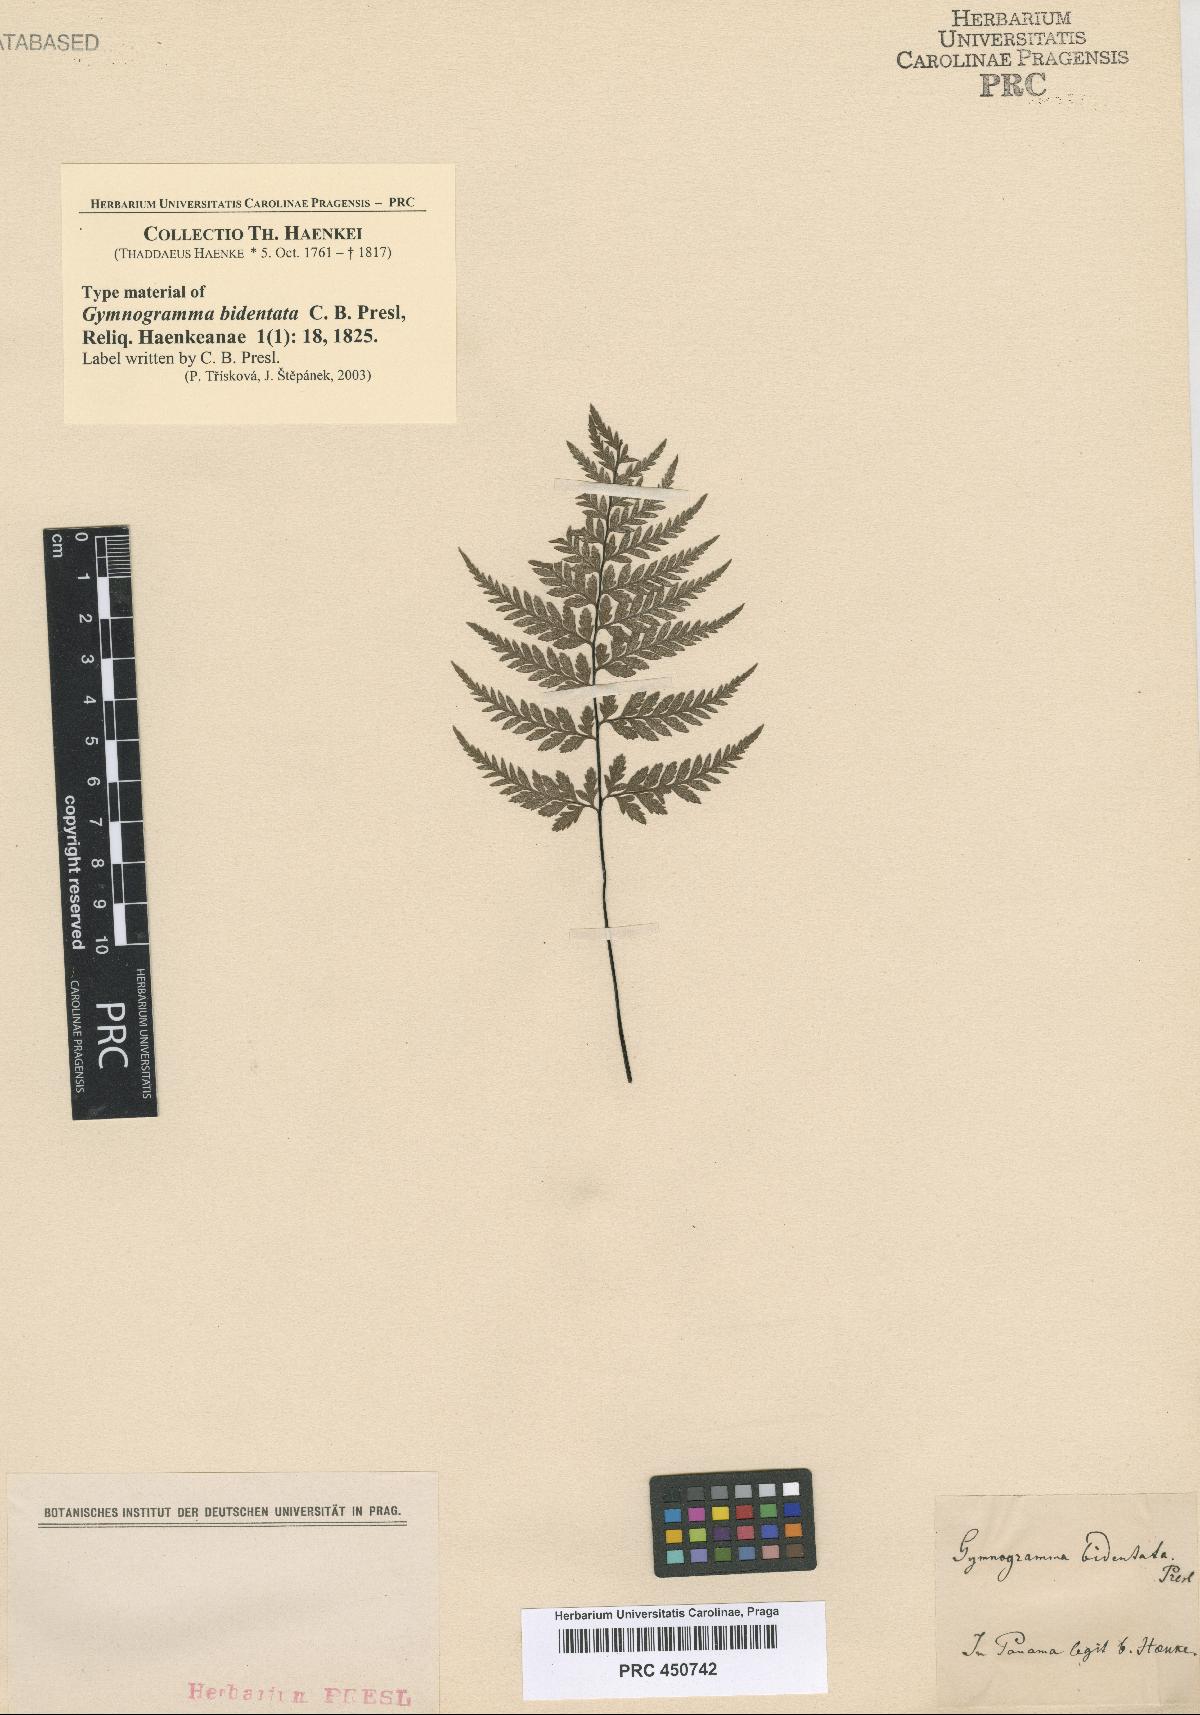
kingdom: Plantae
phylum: Tracheophyta
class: Polypodiopsida
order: Polypodiales
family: Pteridaceae
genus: Pityrogramma
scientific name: Pityrogramma calomelanos
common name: Dixie silverback fern
